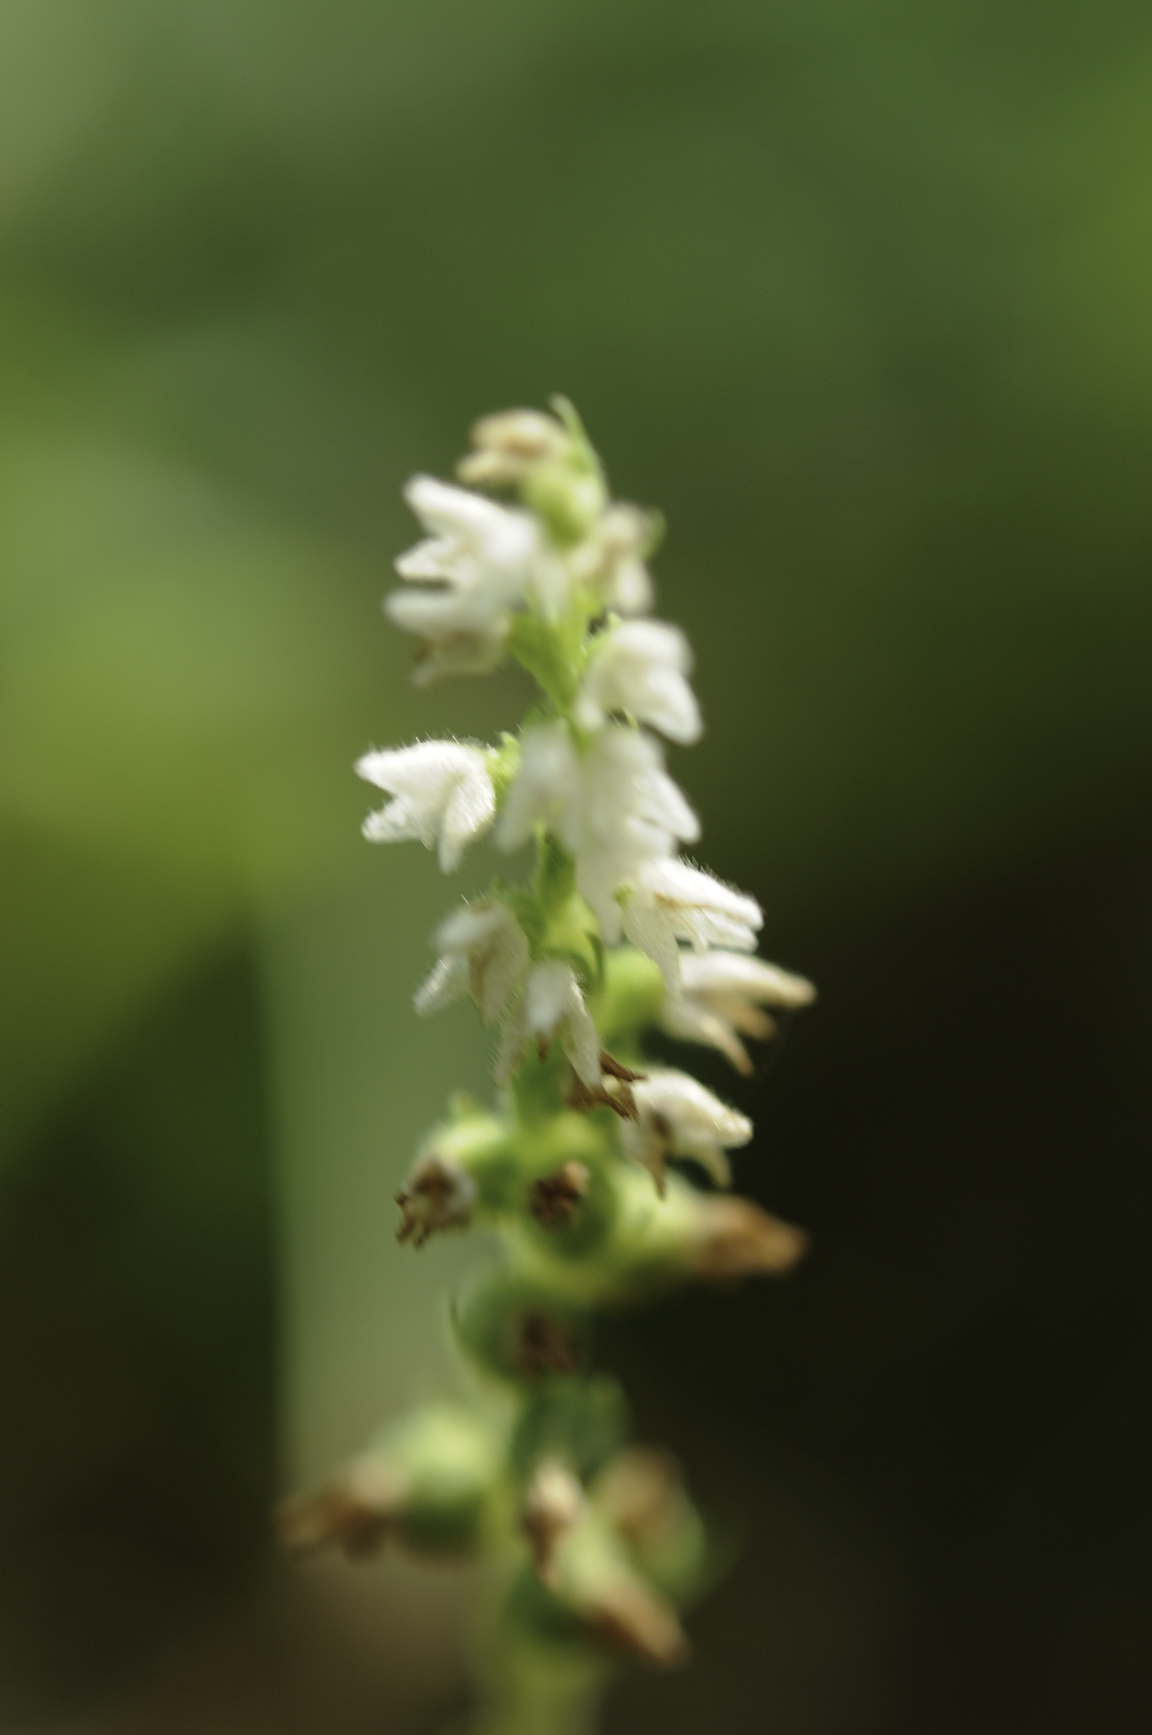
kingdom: Plantae
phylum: Tracheophyta
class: Liliopsida
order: Asparagales
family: Orchidaceae
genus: Goodyera
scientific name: Goodyera repens
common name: Creeping lady's-tresses
